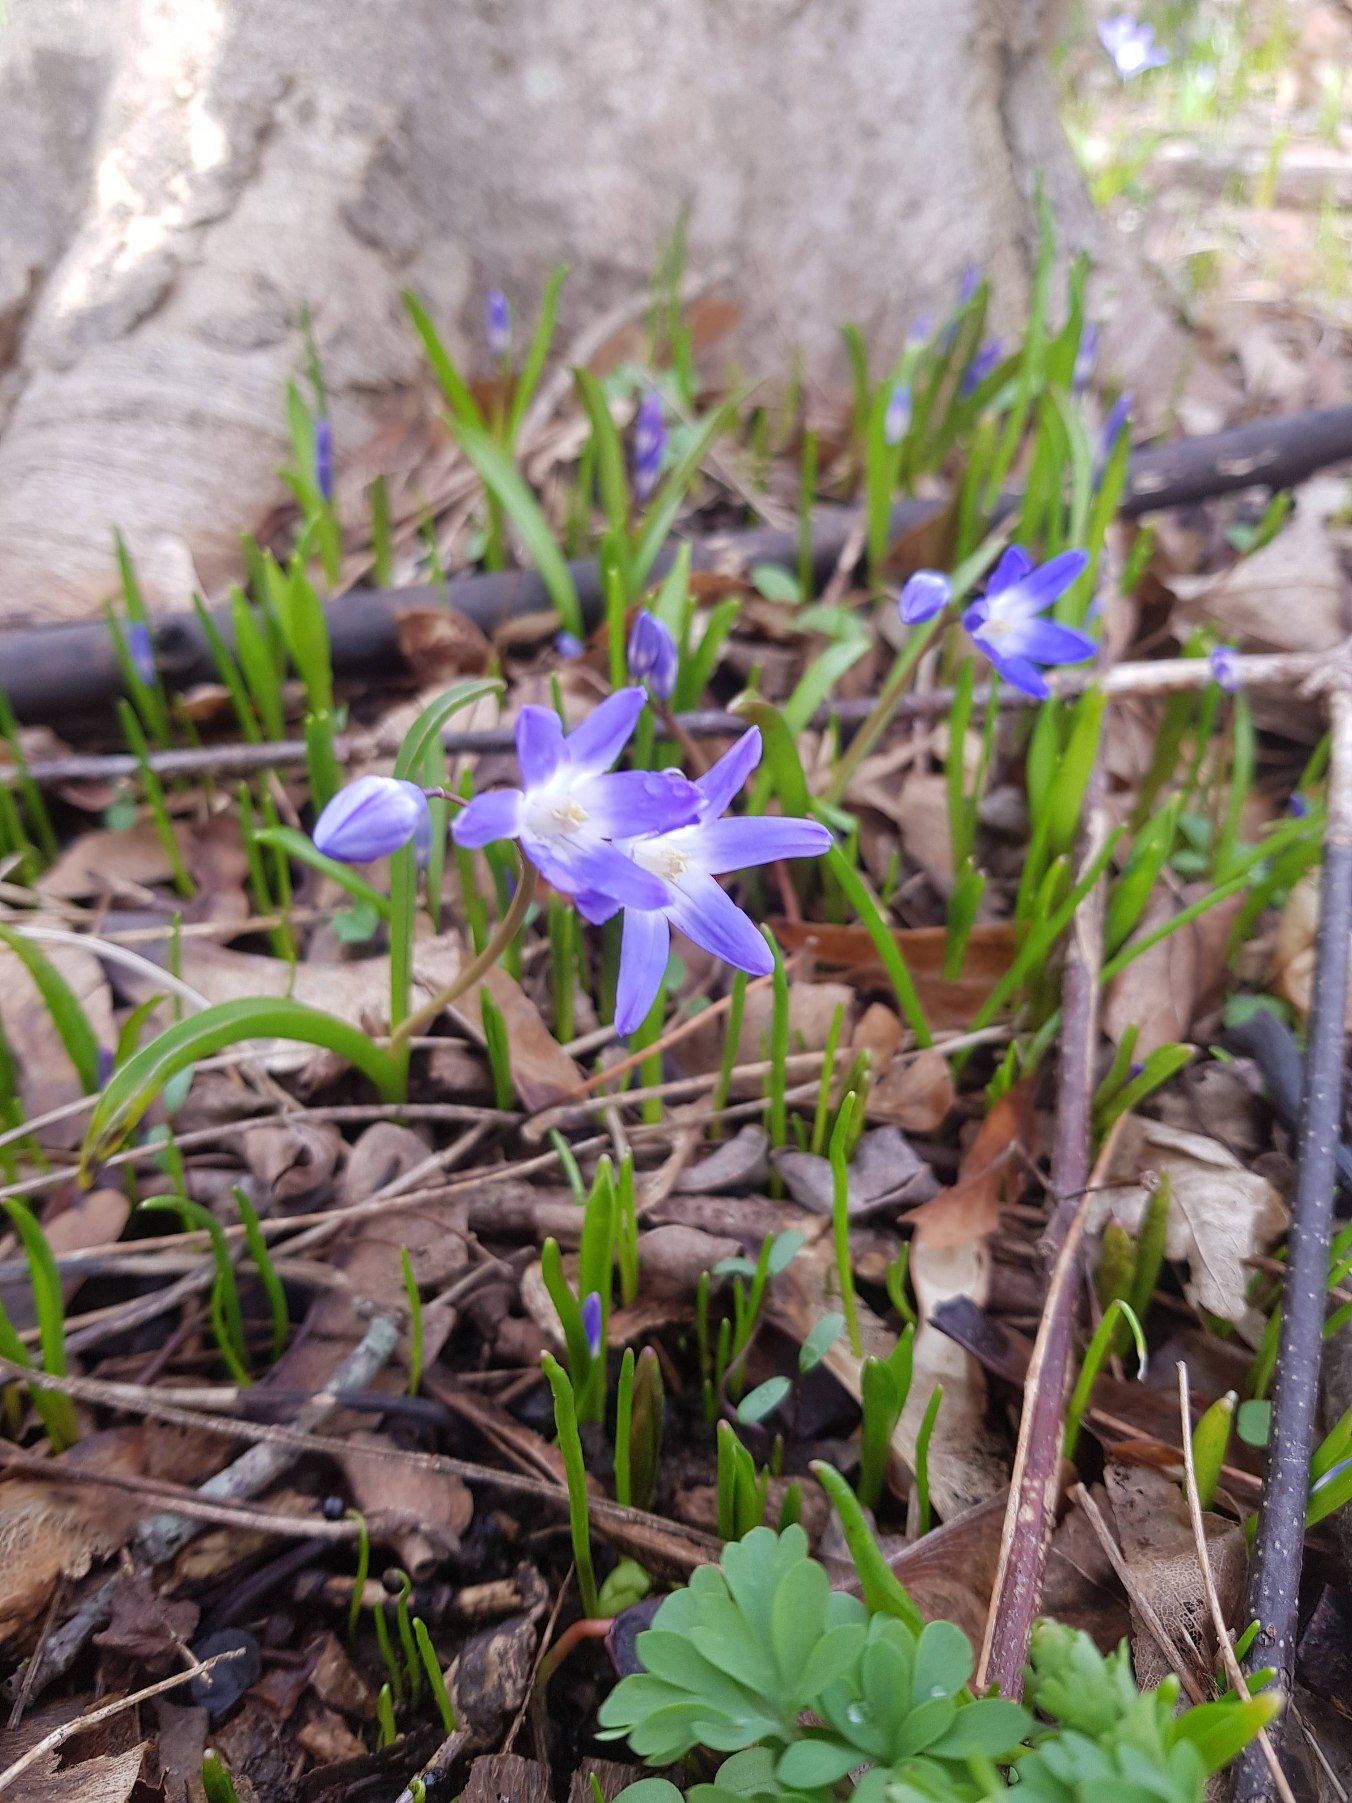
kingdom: Plantae
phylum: Tracheophyta
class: Liliopsida
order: Asparagales
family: Asparagaceae
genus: Scilla
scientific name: Scilla forbesii
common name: Almindelig snepryd
